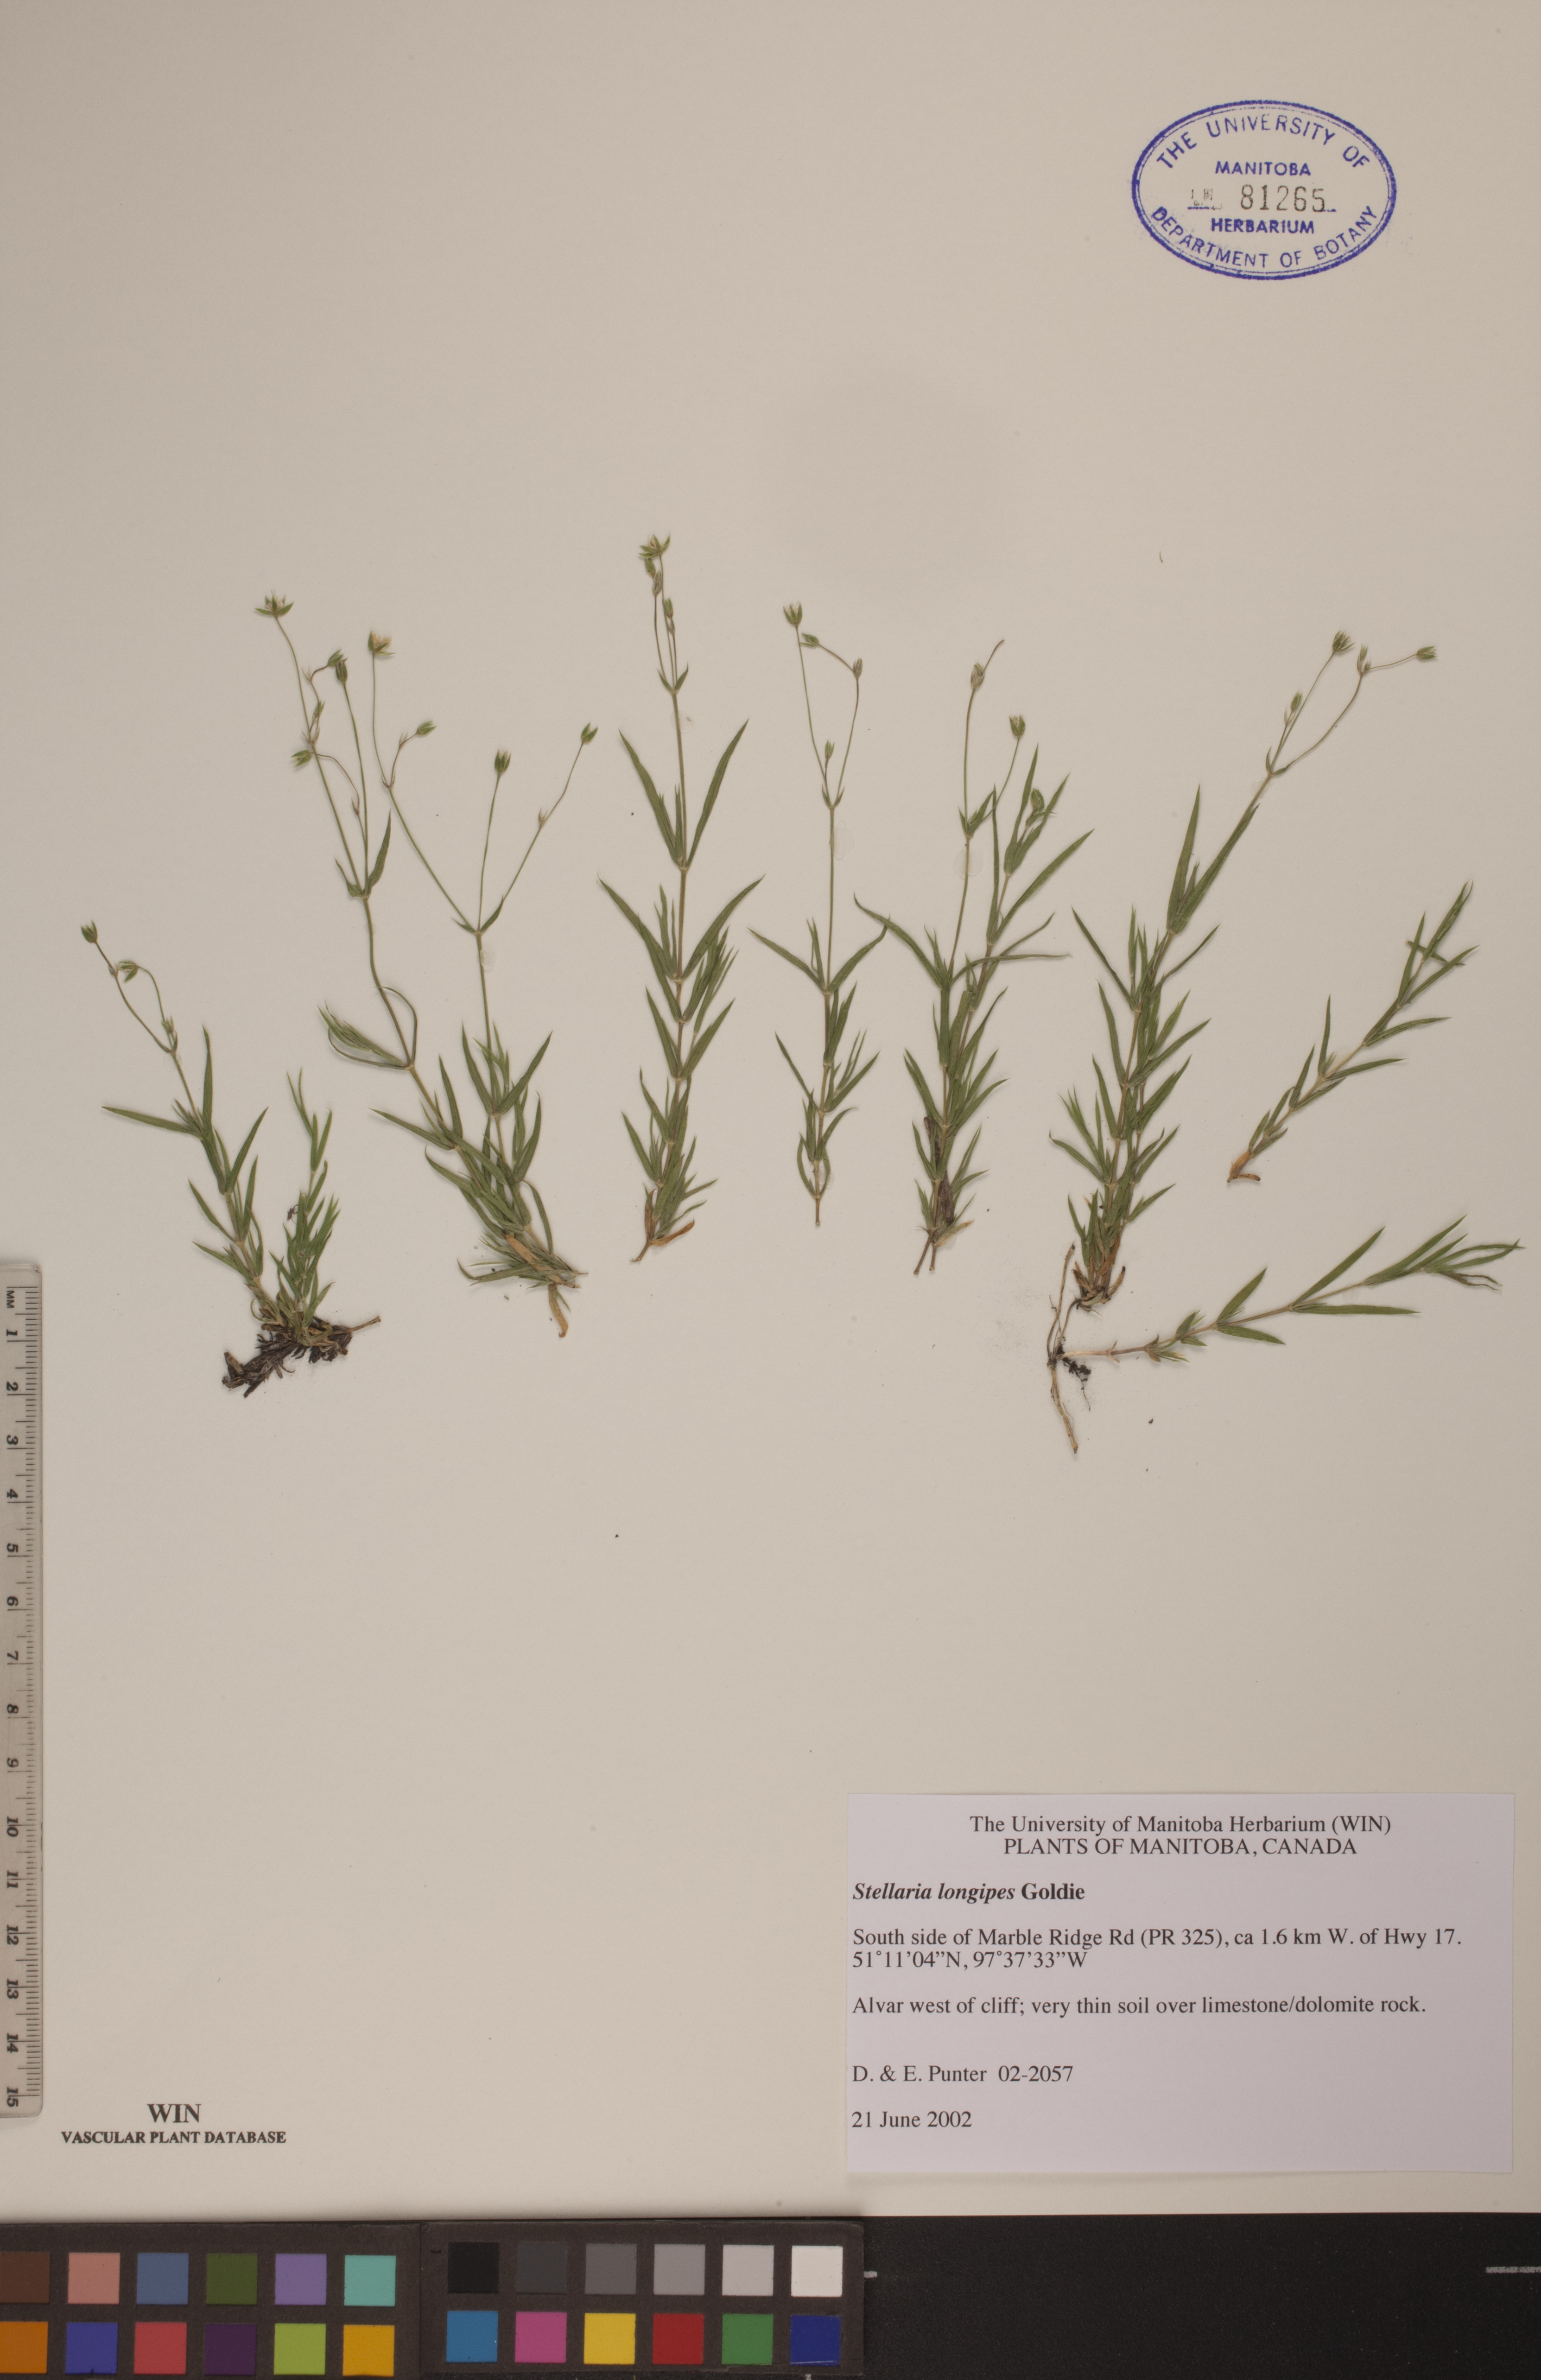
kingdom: Plantae
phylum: Tracheophyta
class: Magnoliopsida
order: Caryophyllales
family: Caryophyllaceae
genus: Stellaria
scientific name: Stellaria longipes
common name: Goldie's starwort
